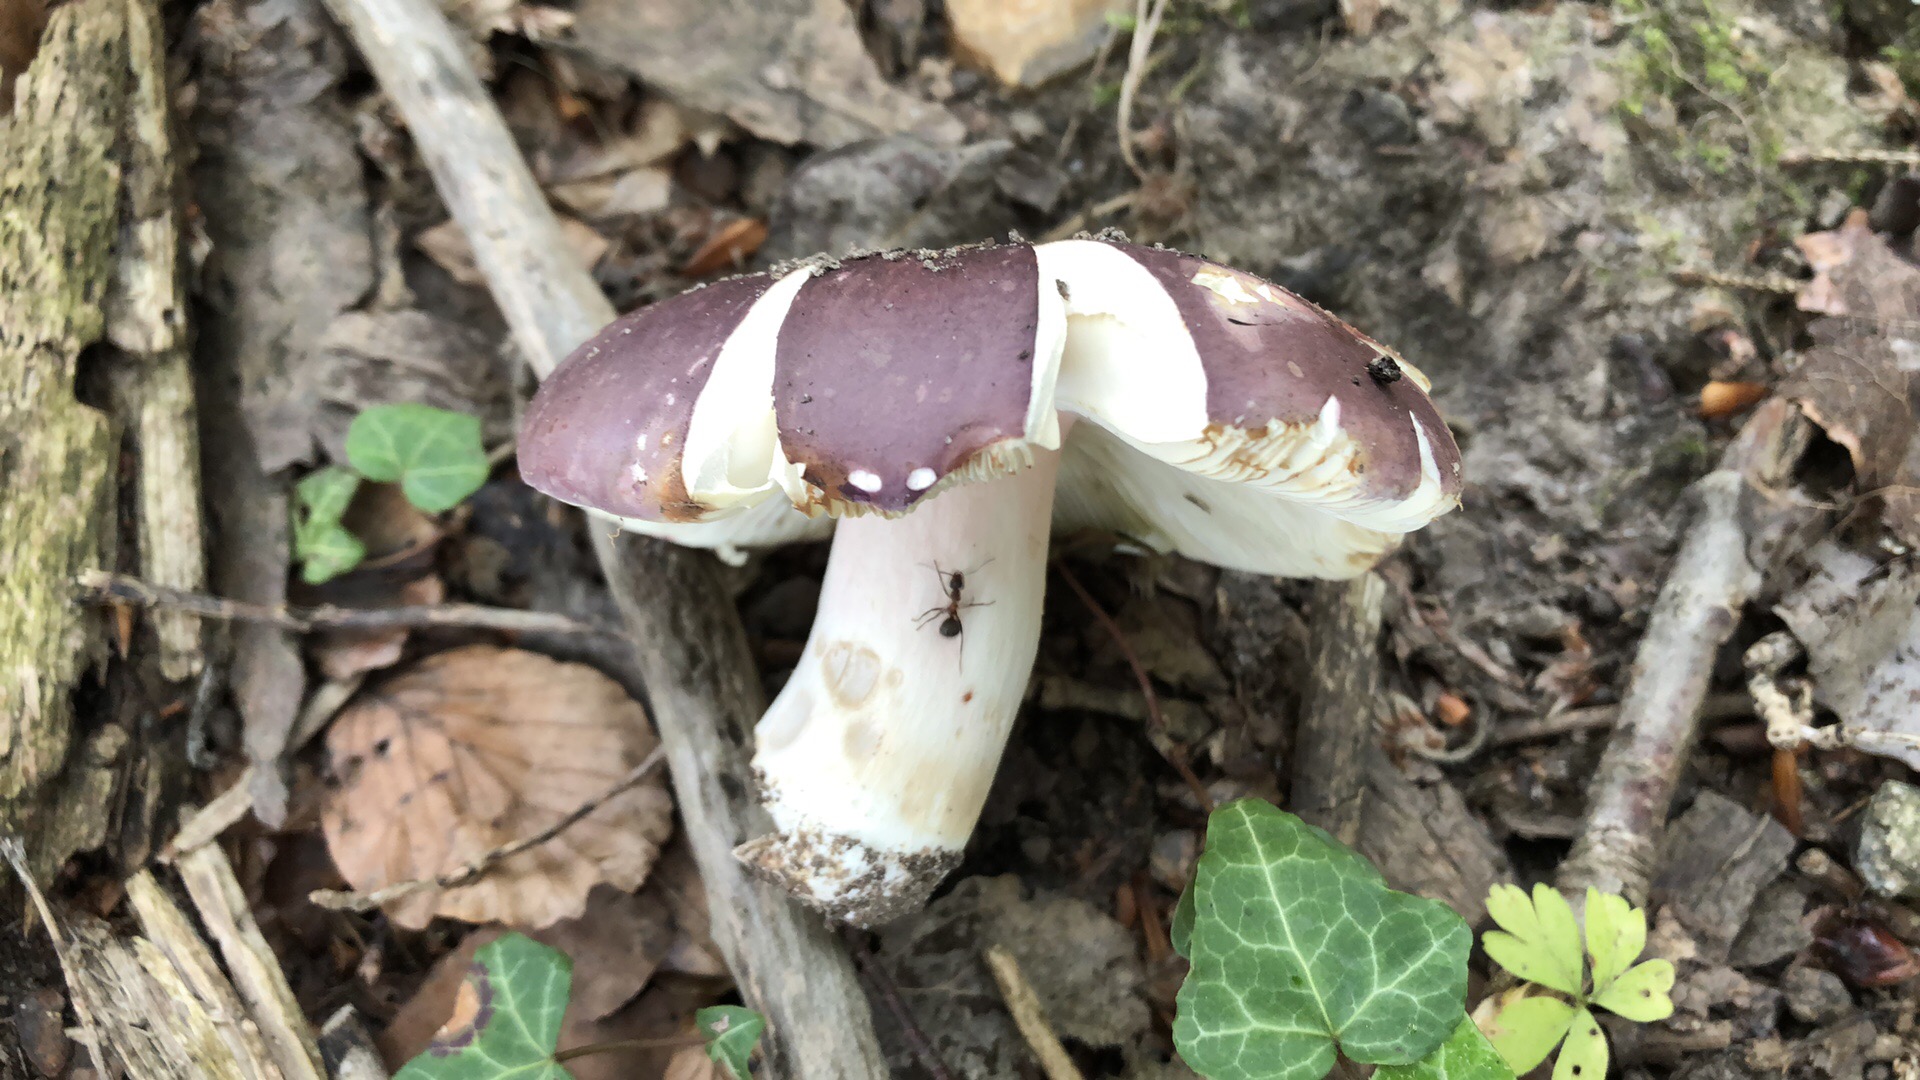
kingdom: Fungi
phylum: Basidiomycota
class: Agaricomycetes
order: Russulales
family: Russulaceae
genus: Russula
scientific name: Russula olivacea
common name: stor skørhat
